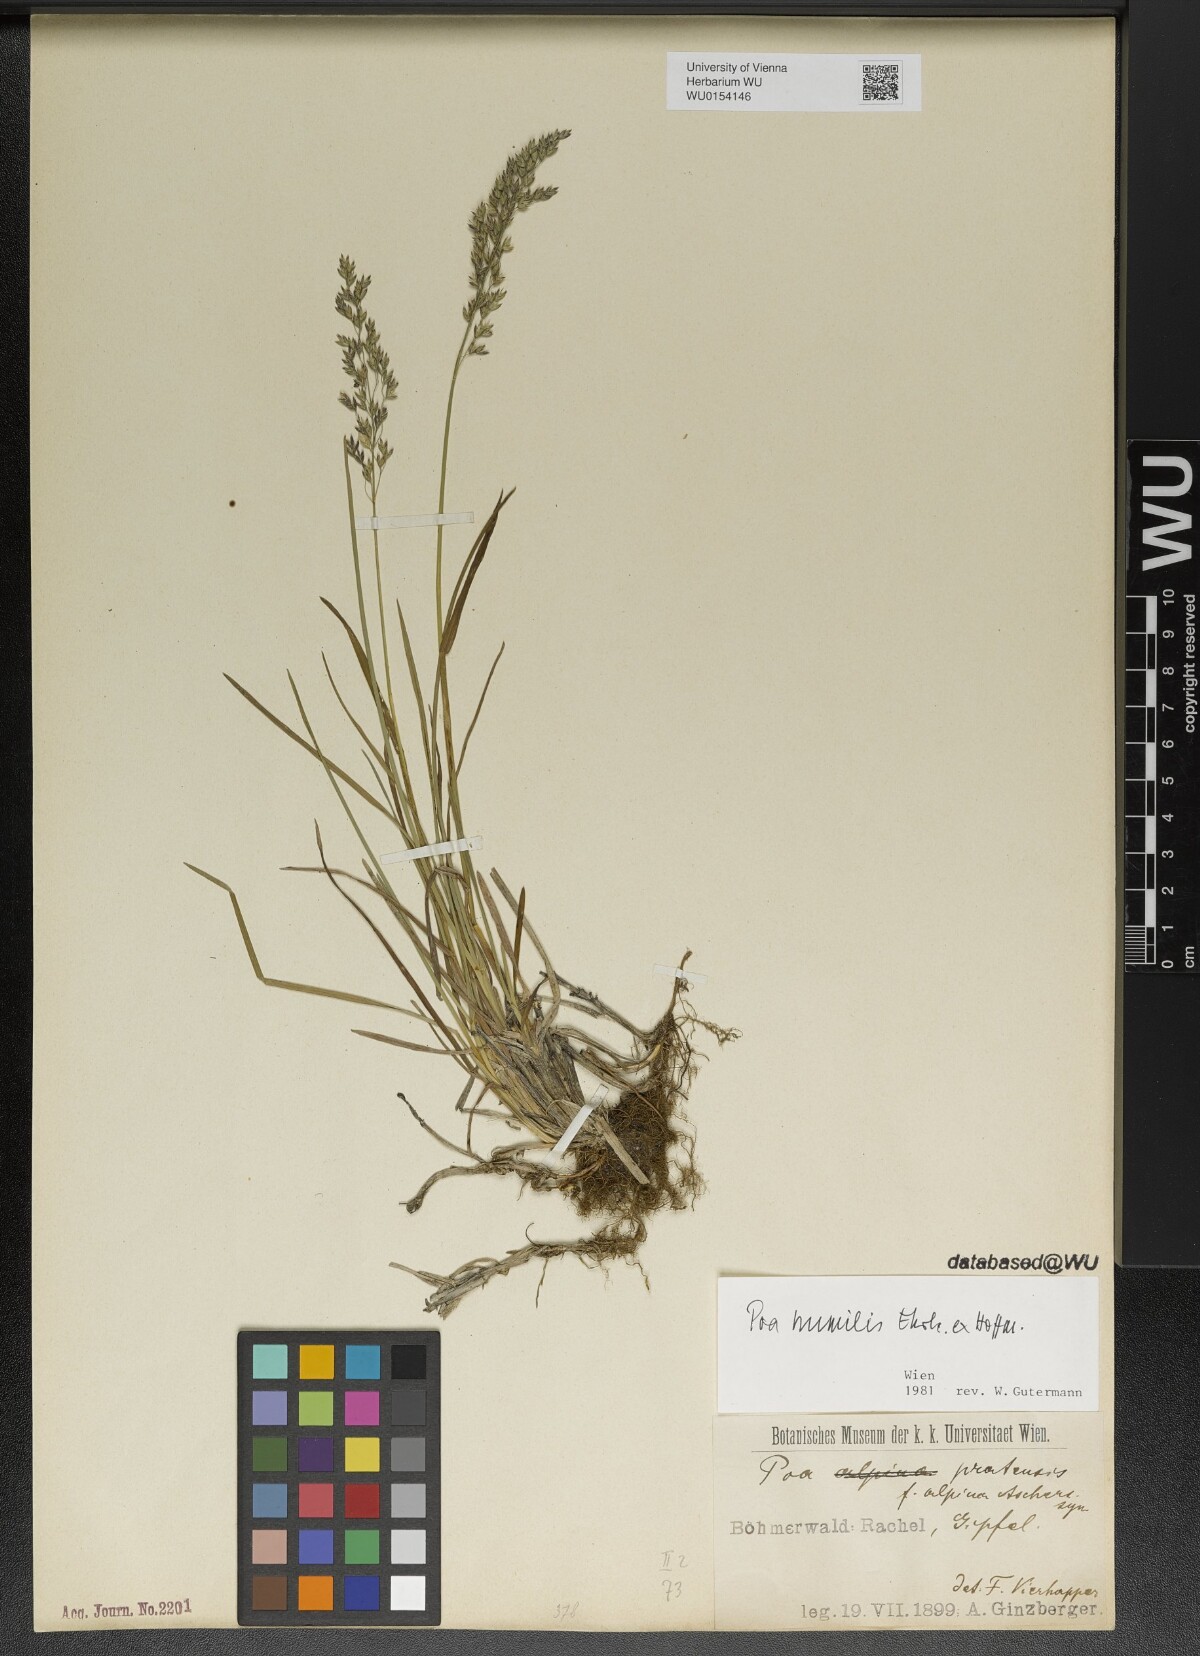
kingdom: Plantae
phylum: Tracheophyta
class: Liliopsida
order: Poales
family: Poaceae
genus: Poa
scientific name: Poa humilis
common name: Spreading meadow-grass
